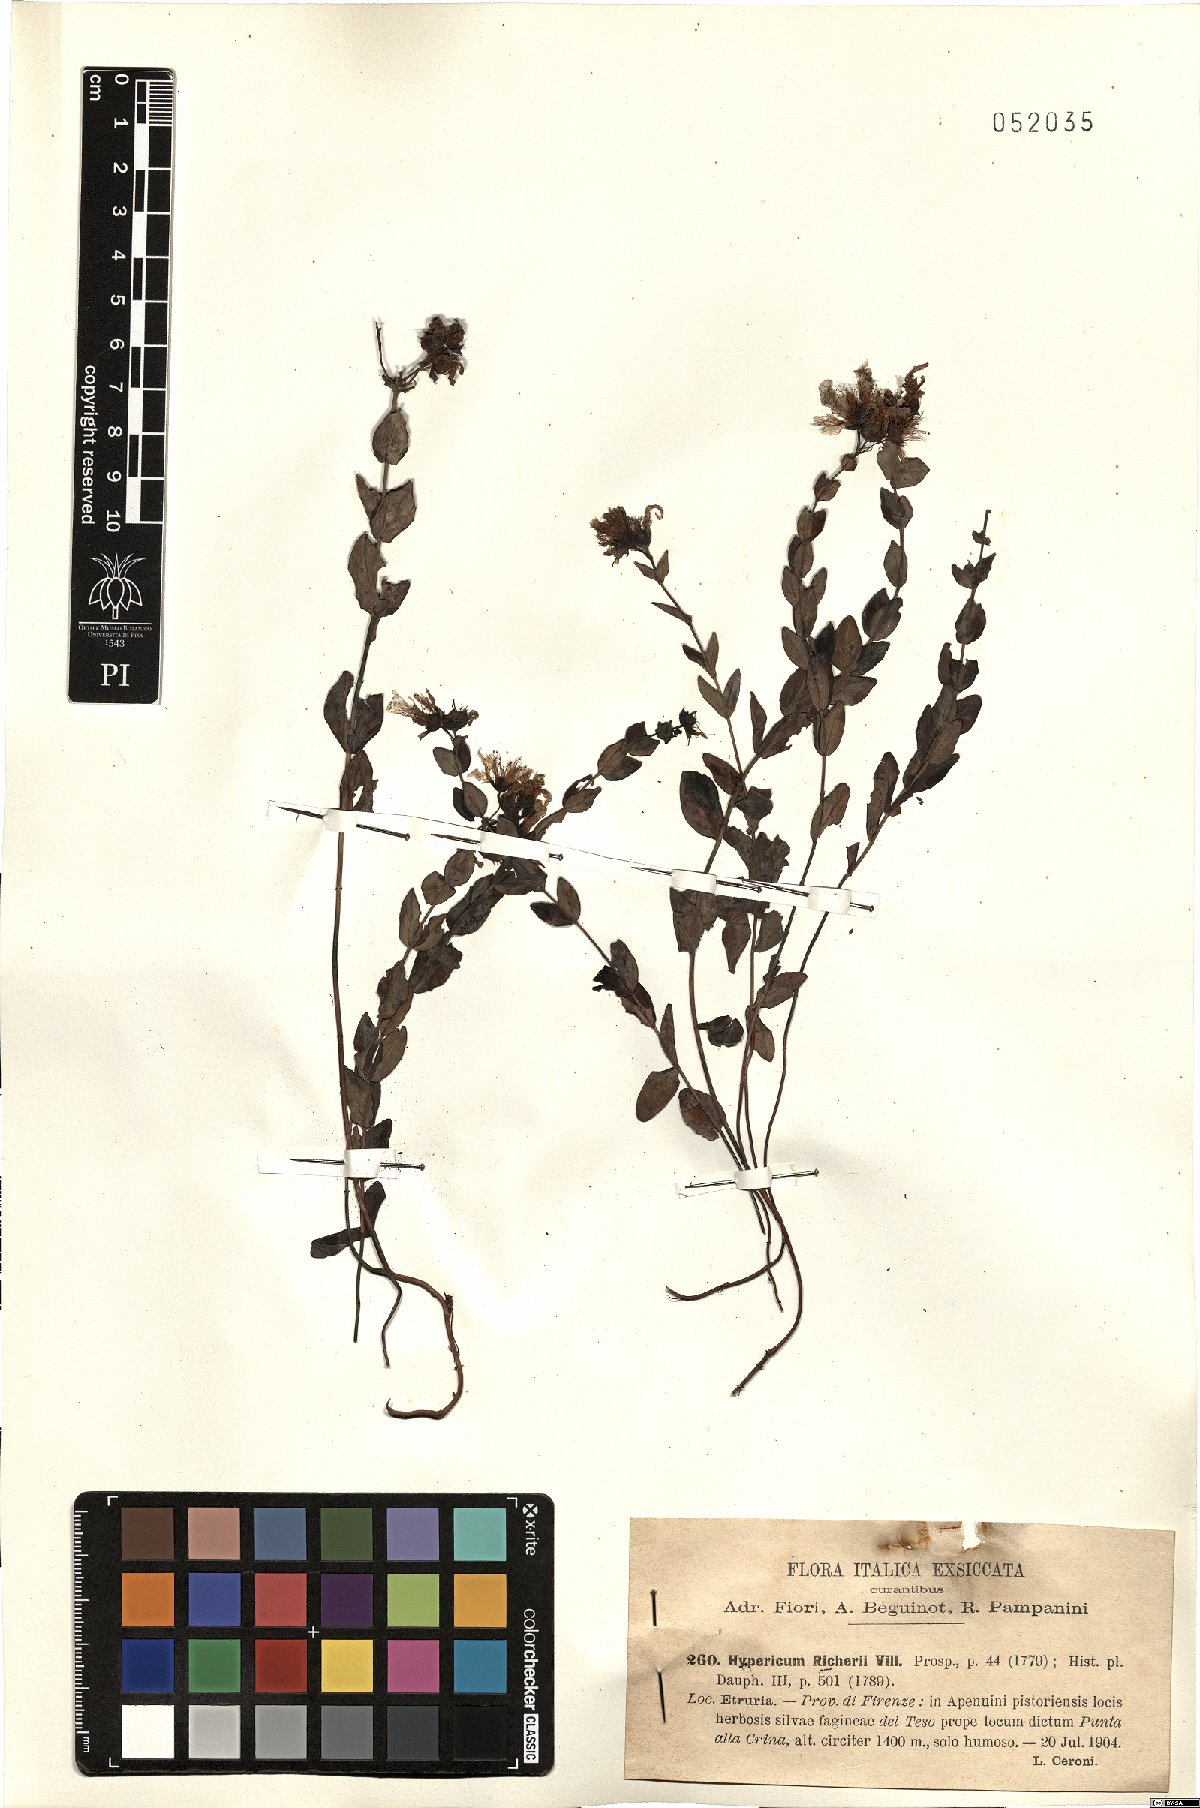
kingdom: Plantae
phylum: Tracheophyta
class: Magnoliopsida
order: Malpighiales
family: Hypericaceae
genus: Hypericum
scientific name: Hypericum richeri
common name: Alpine st john's-wort
